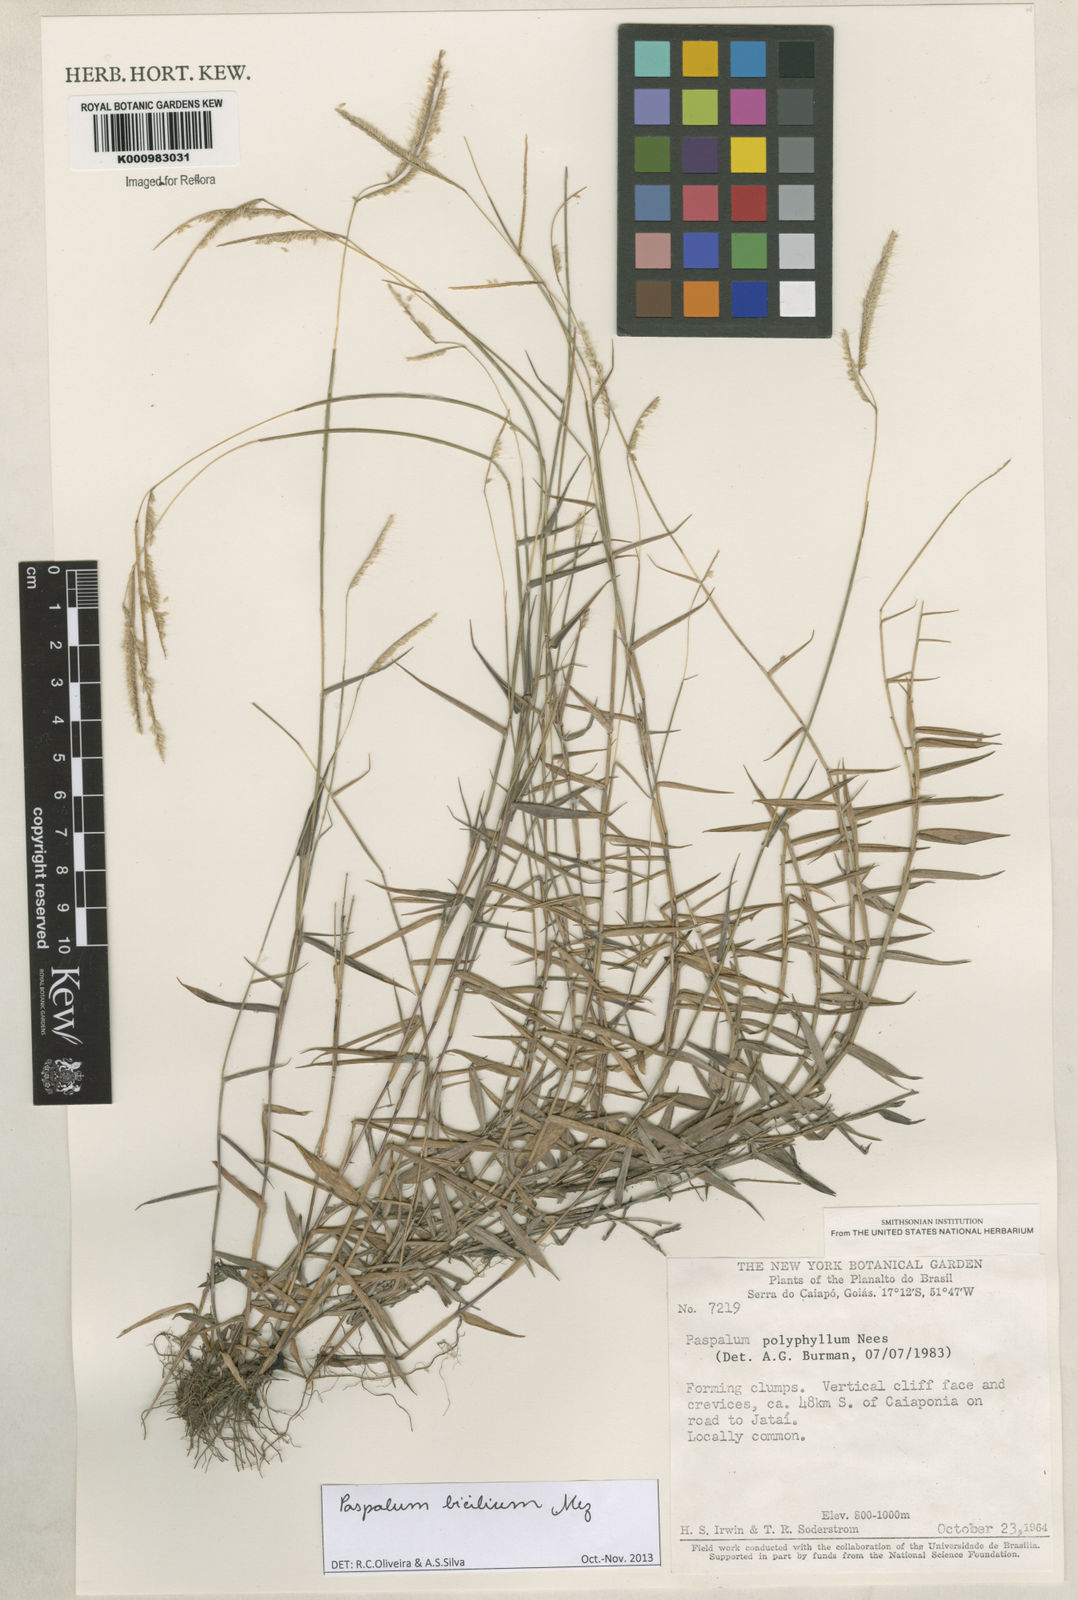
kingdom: Plantae
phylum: Tracheophyta
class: Liliopsida
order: Poales
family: Poaceae
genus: Paspalum
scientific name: Paspalum polyphyllum
